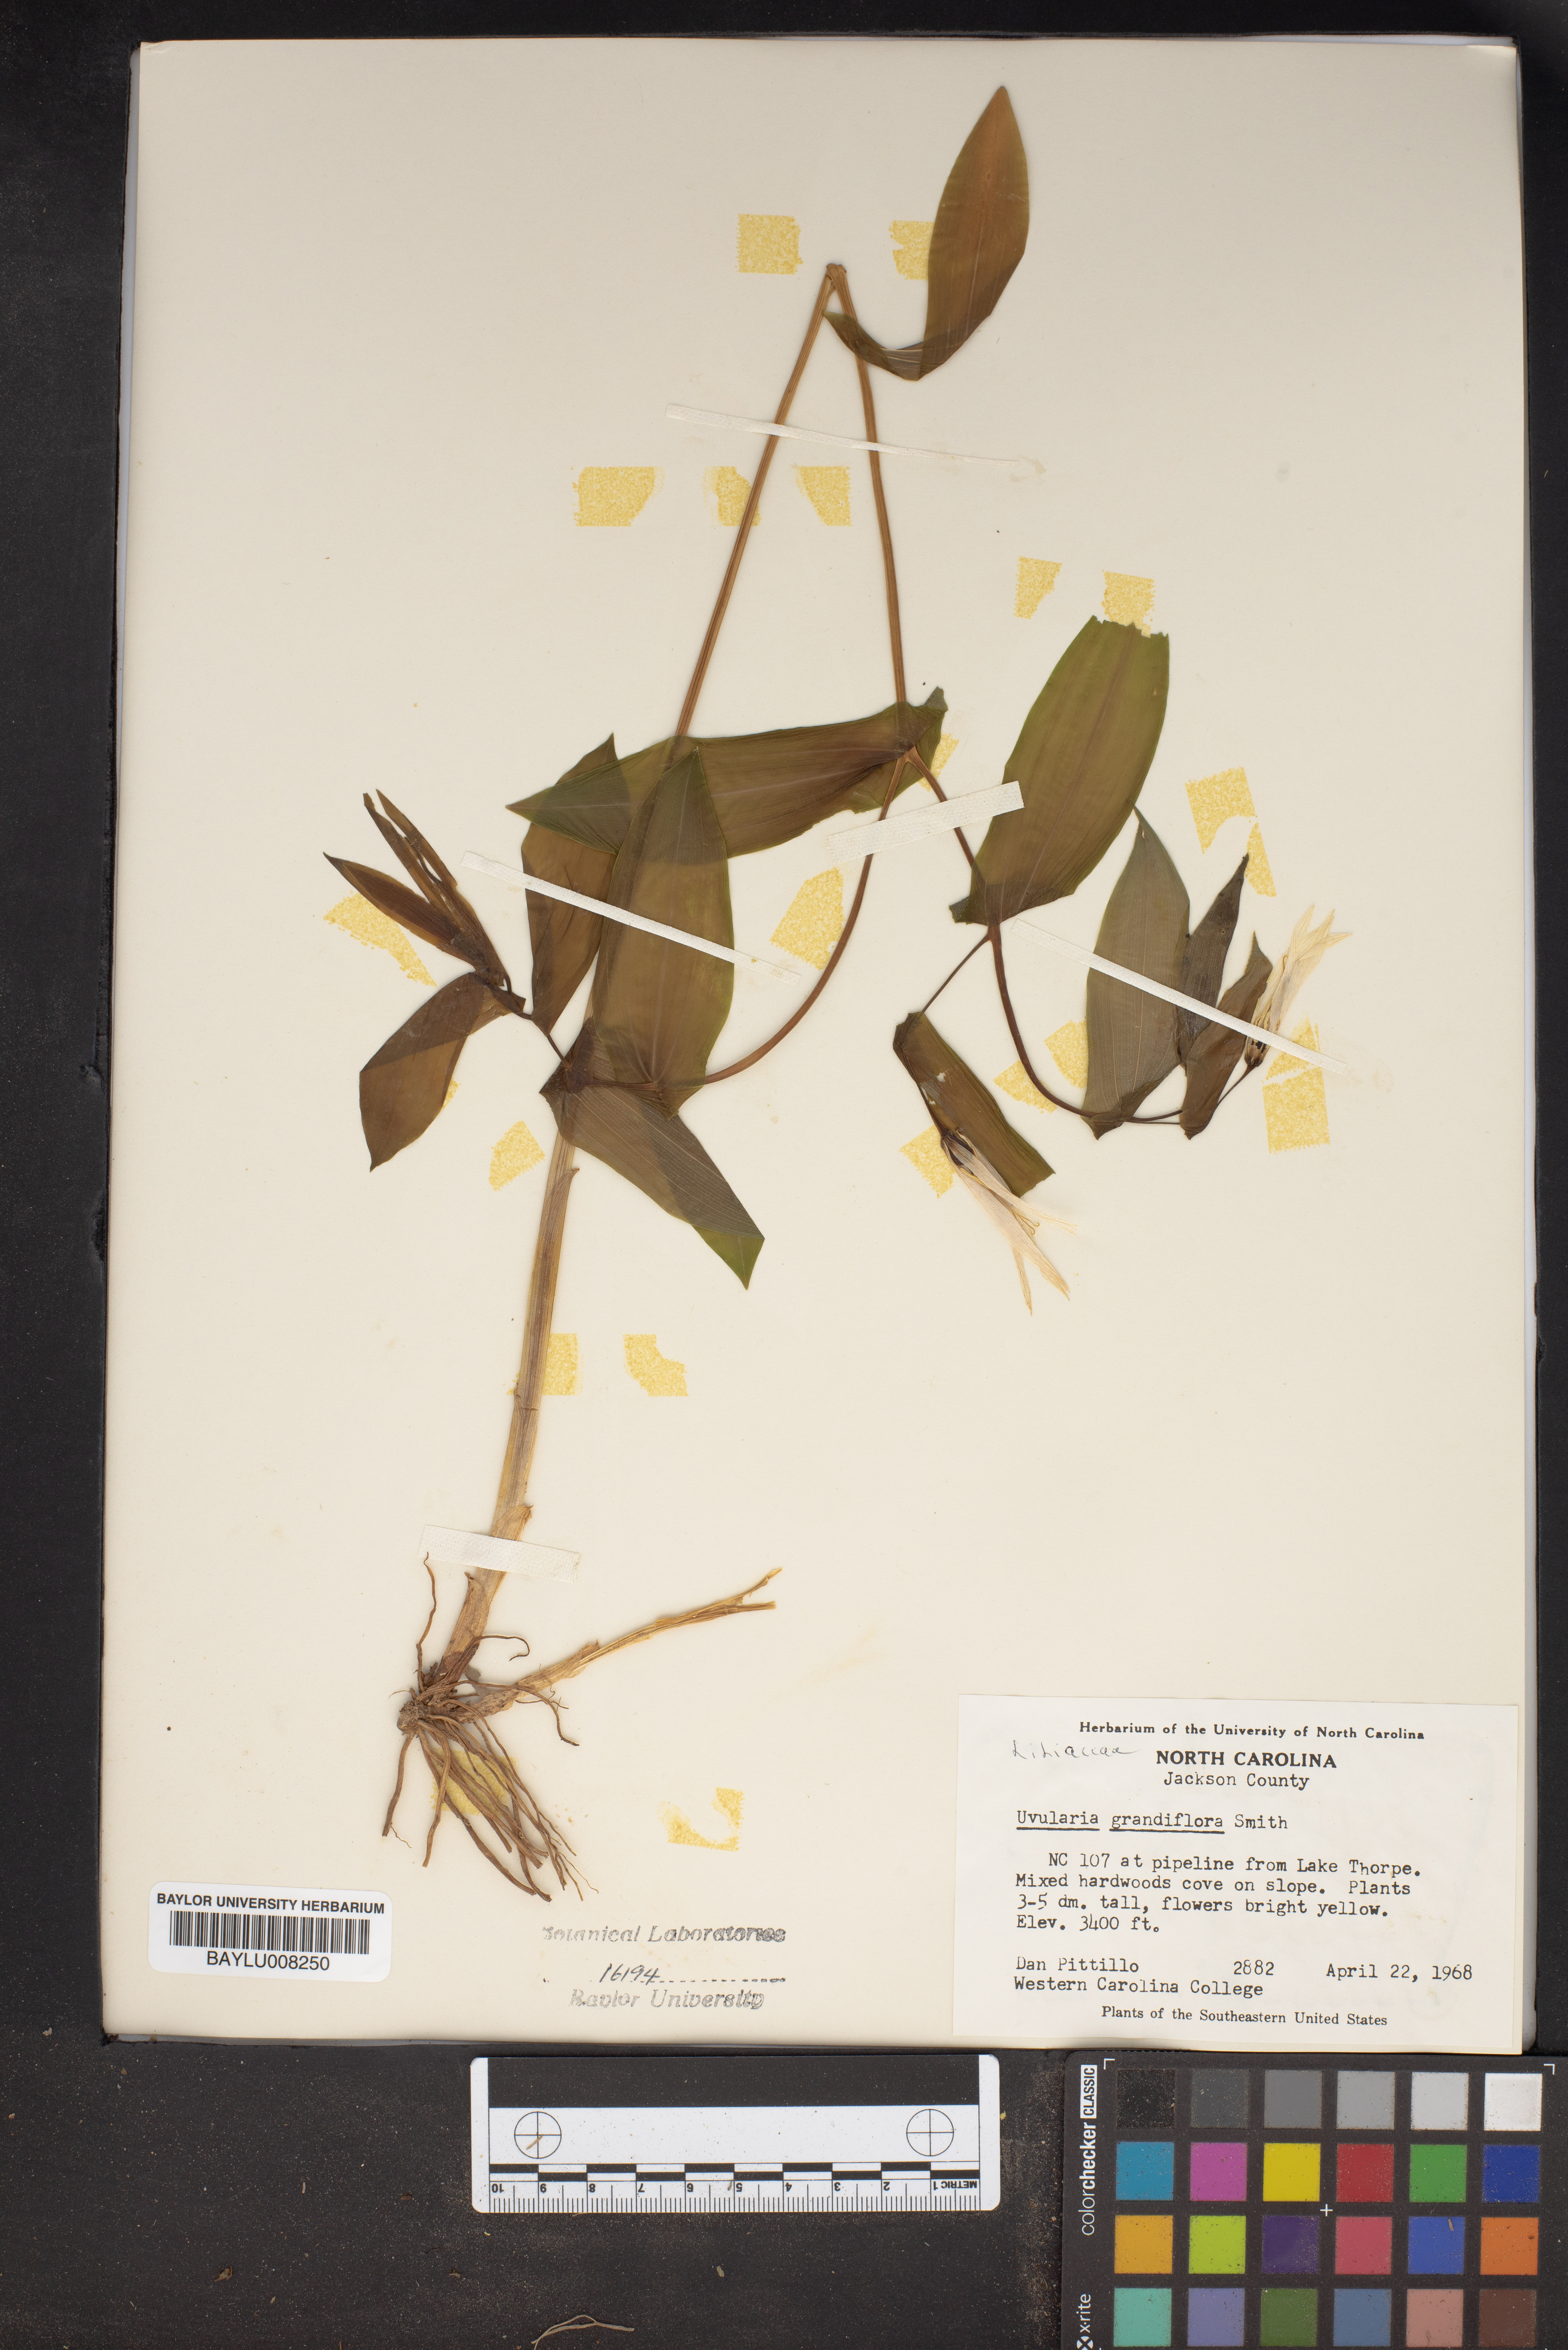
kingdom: Plantae
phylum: Tracheophyta
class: Liliopsida
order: Liliales
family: Colchicaceae
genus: Uvularia
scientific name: Uvularia grandiflora
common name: Bellwort
